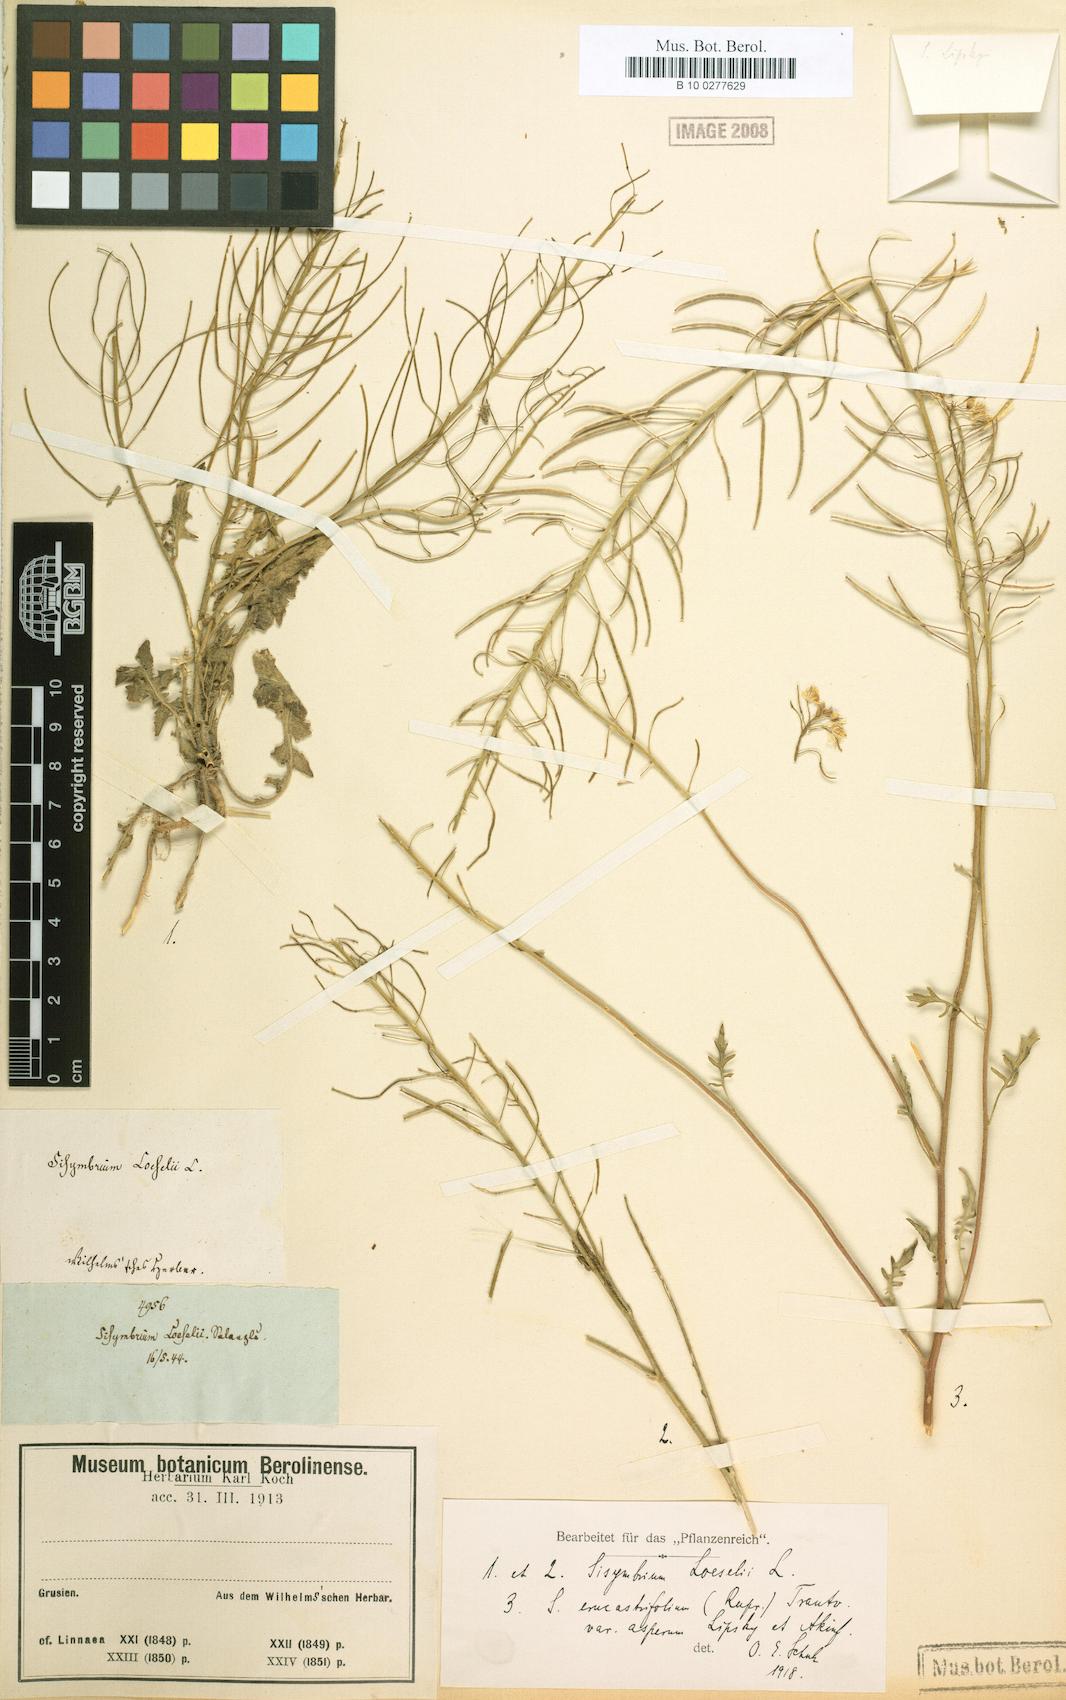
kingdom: Plantae
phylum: Tracheophyta
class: Magnoliopsida
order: Brassicales
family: Brassicaceae
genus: Sisymbrium
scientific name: Sisymbrium loeselii
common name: False london-rocket
